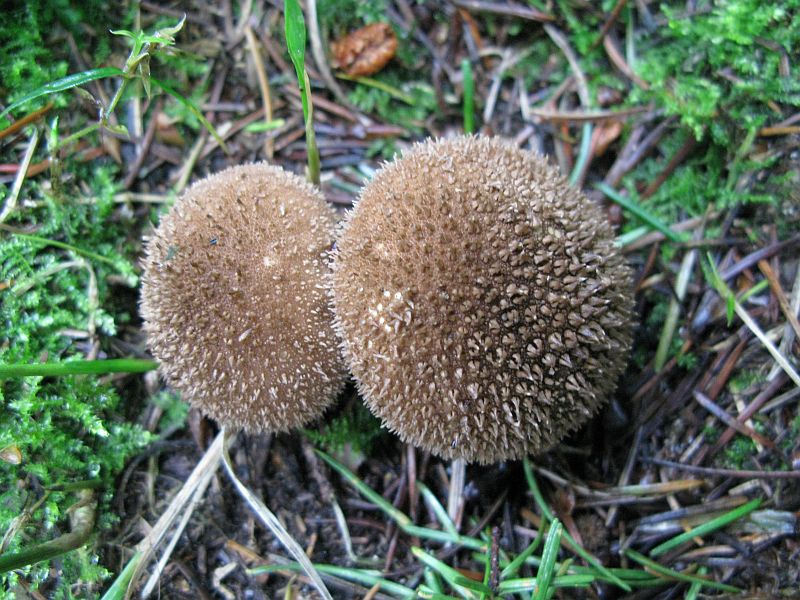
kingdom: Fungi
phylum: Basidiomycota
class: Agaricomycetes
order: Agaricales
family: Lycoperdaceae
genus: Lycoperdon
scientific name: Lycoperdon nigrescens
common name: sortagtig støvbold
